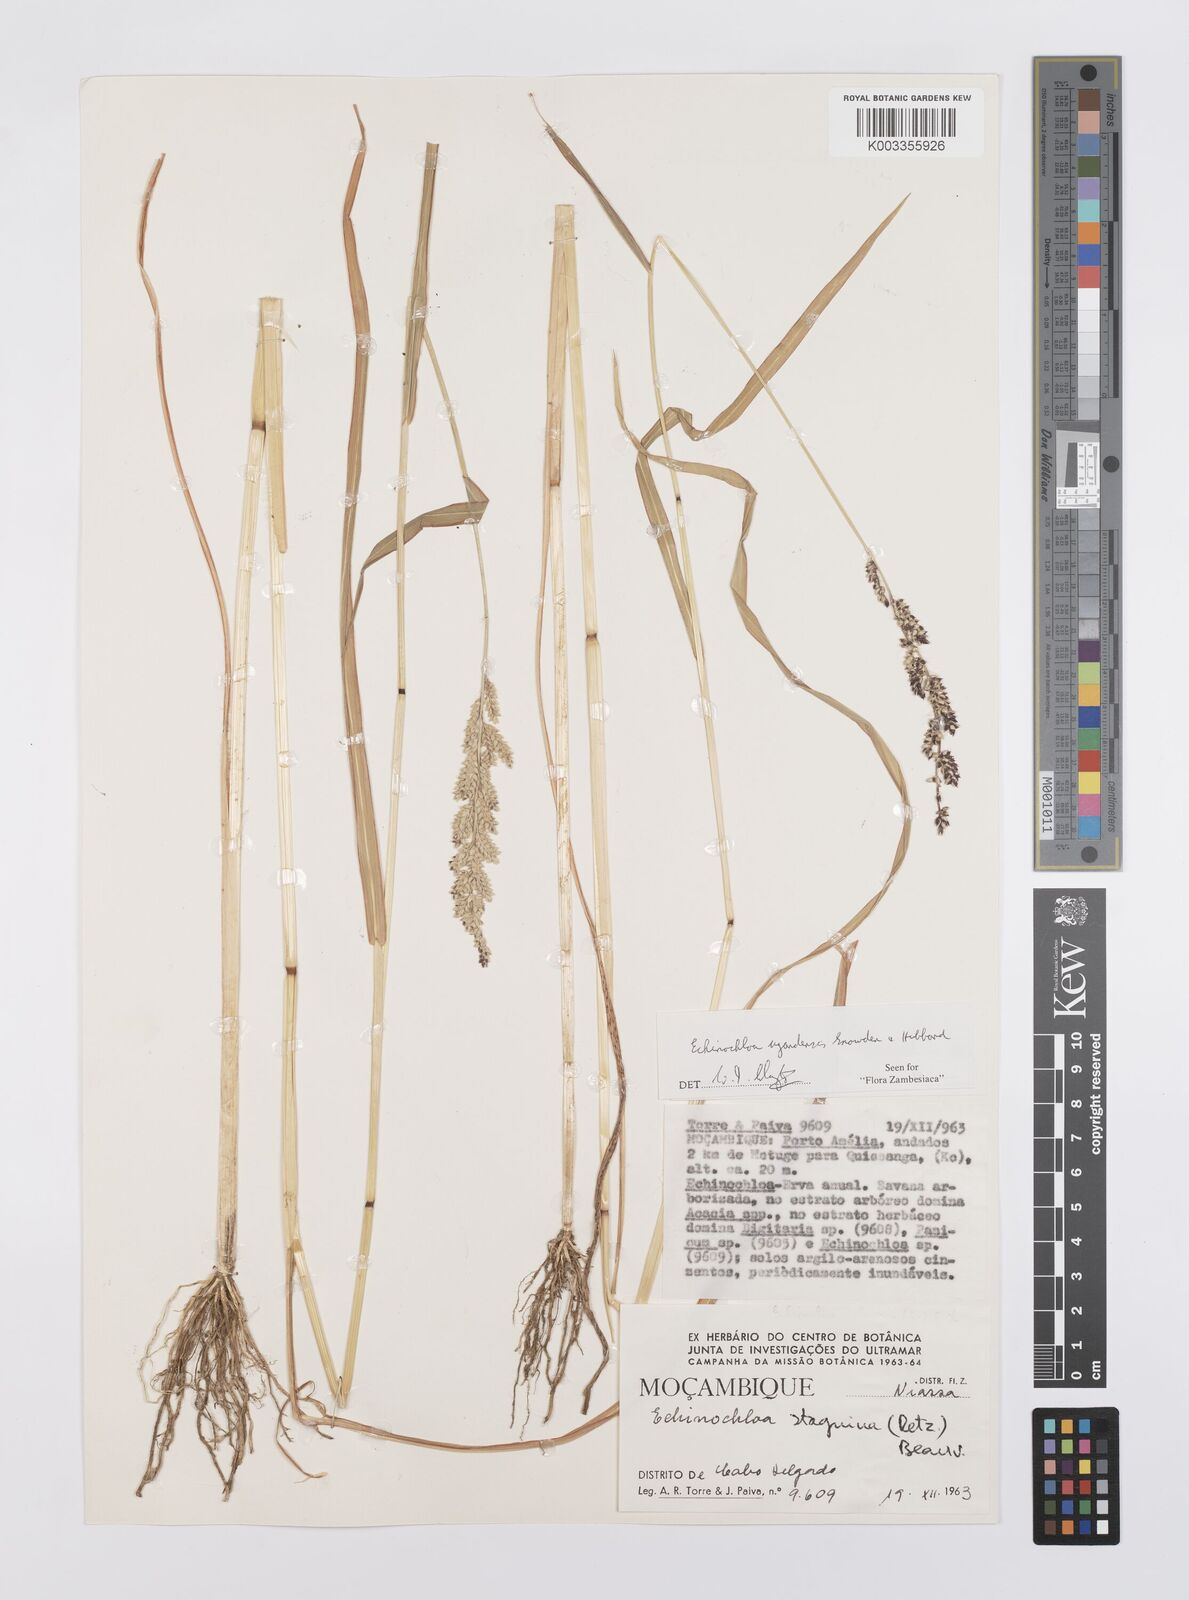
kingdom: Plantae
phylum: Tracheophyta
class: Liliopsida
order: Poales
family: Poaceae
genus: Echinochloa
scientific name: Echinochloa ugandensis
